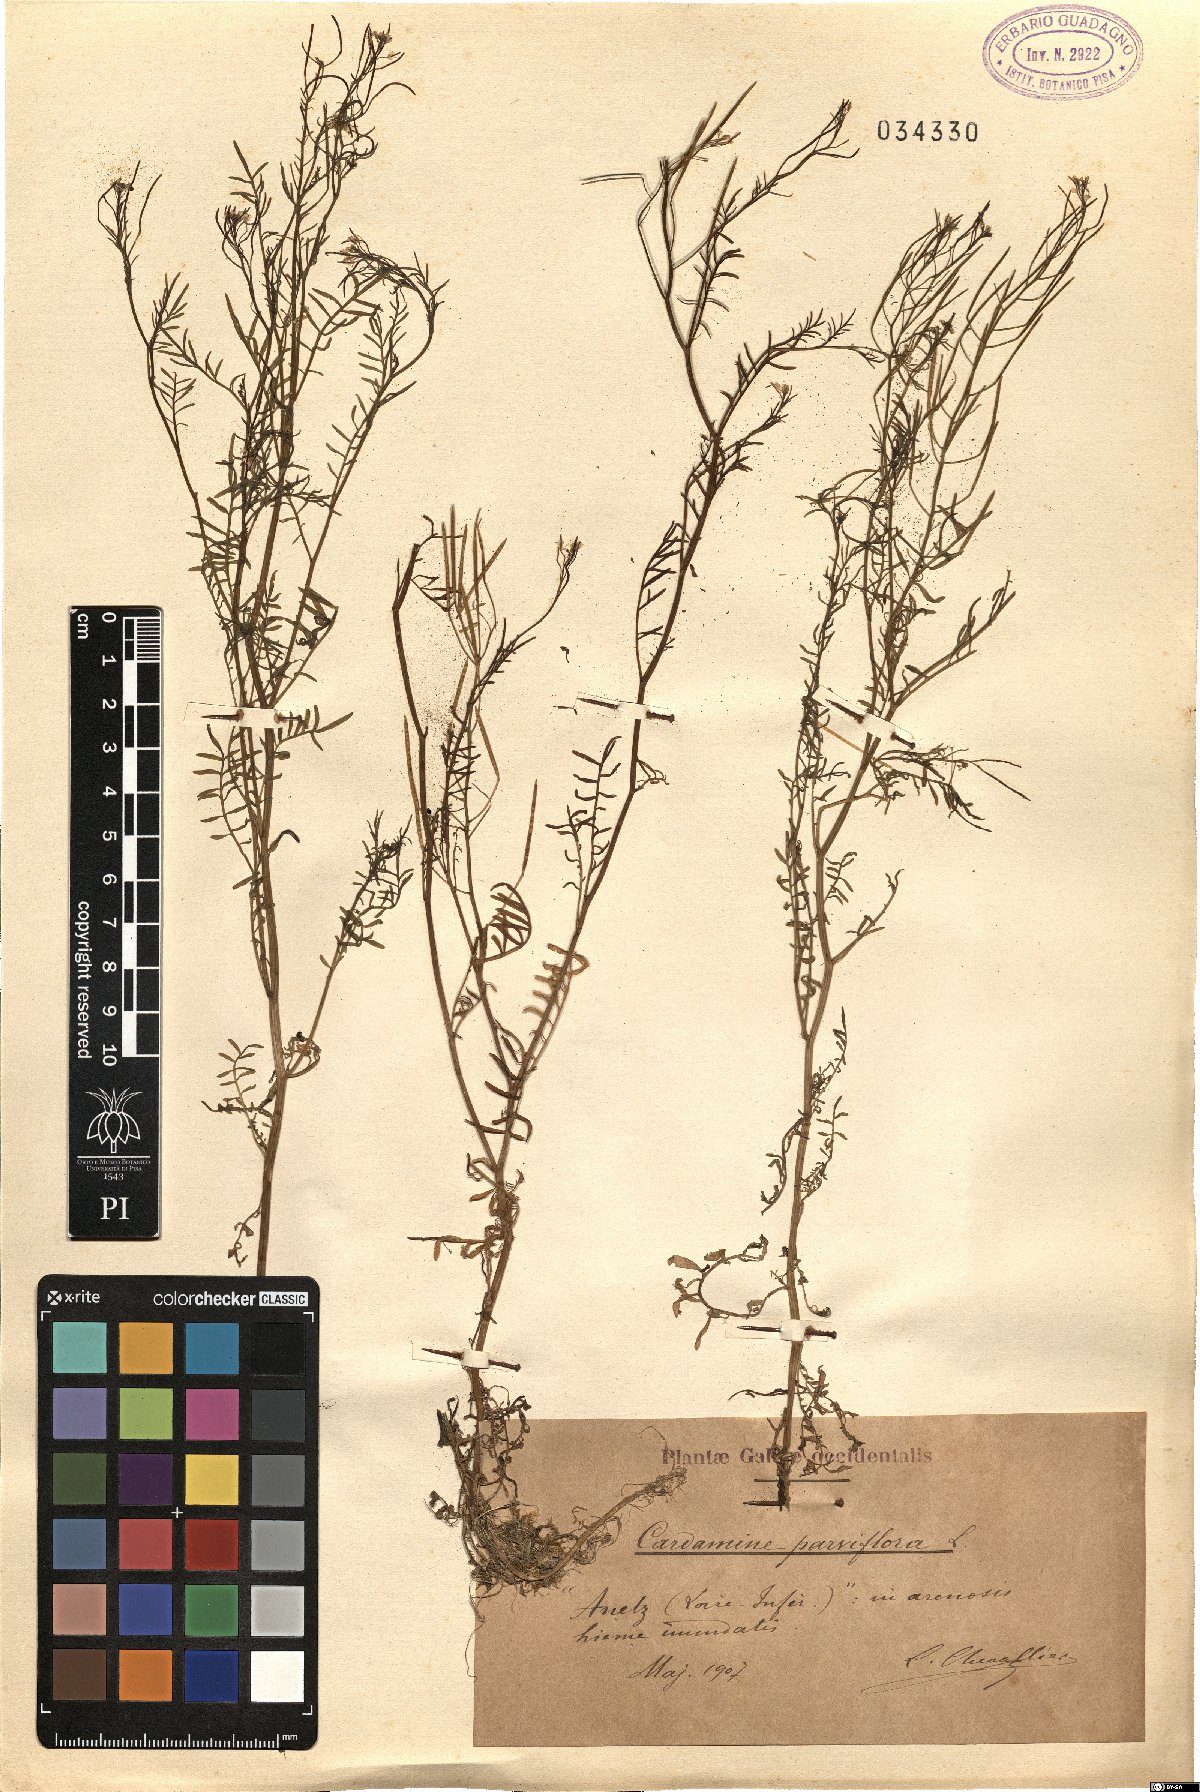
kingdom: Plantae
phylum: Tracheophyta
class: Magnoliopsida
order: Brassicales
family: Brassicaceae
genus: Cardamine
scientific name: Cardamine parviflora
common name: Sand bittercress
